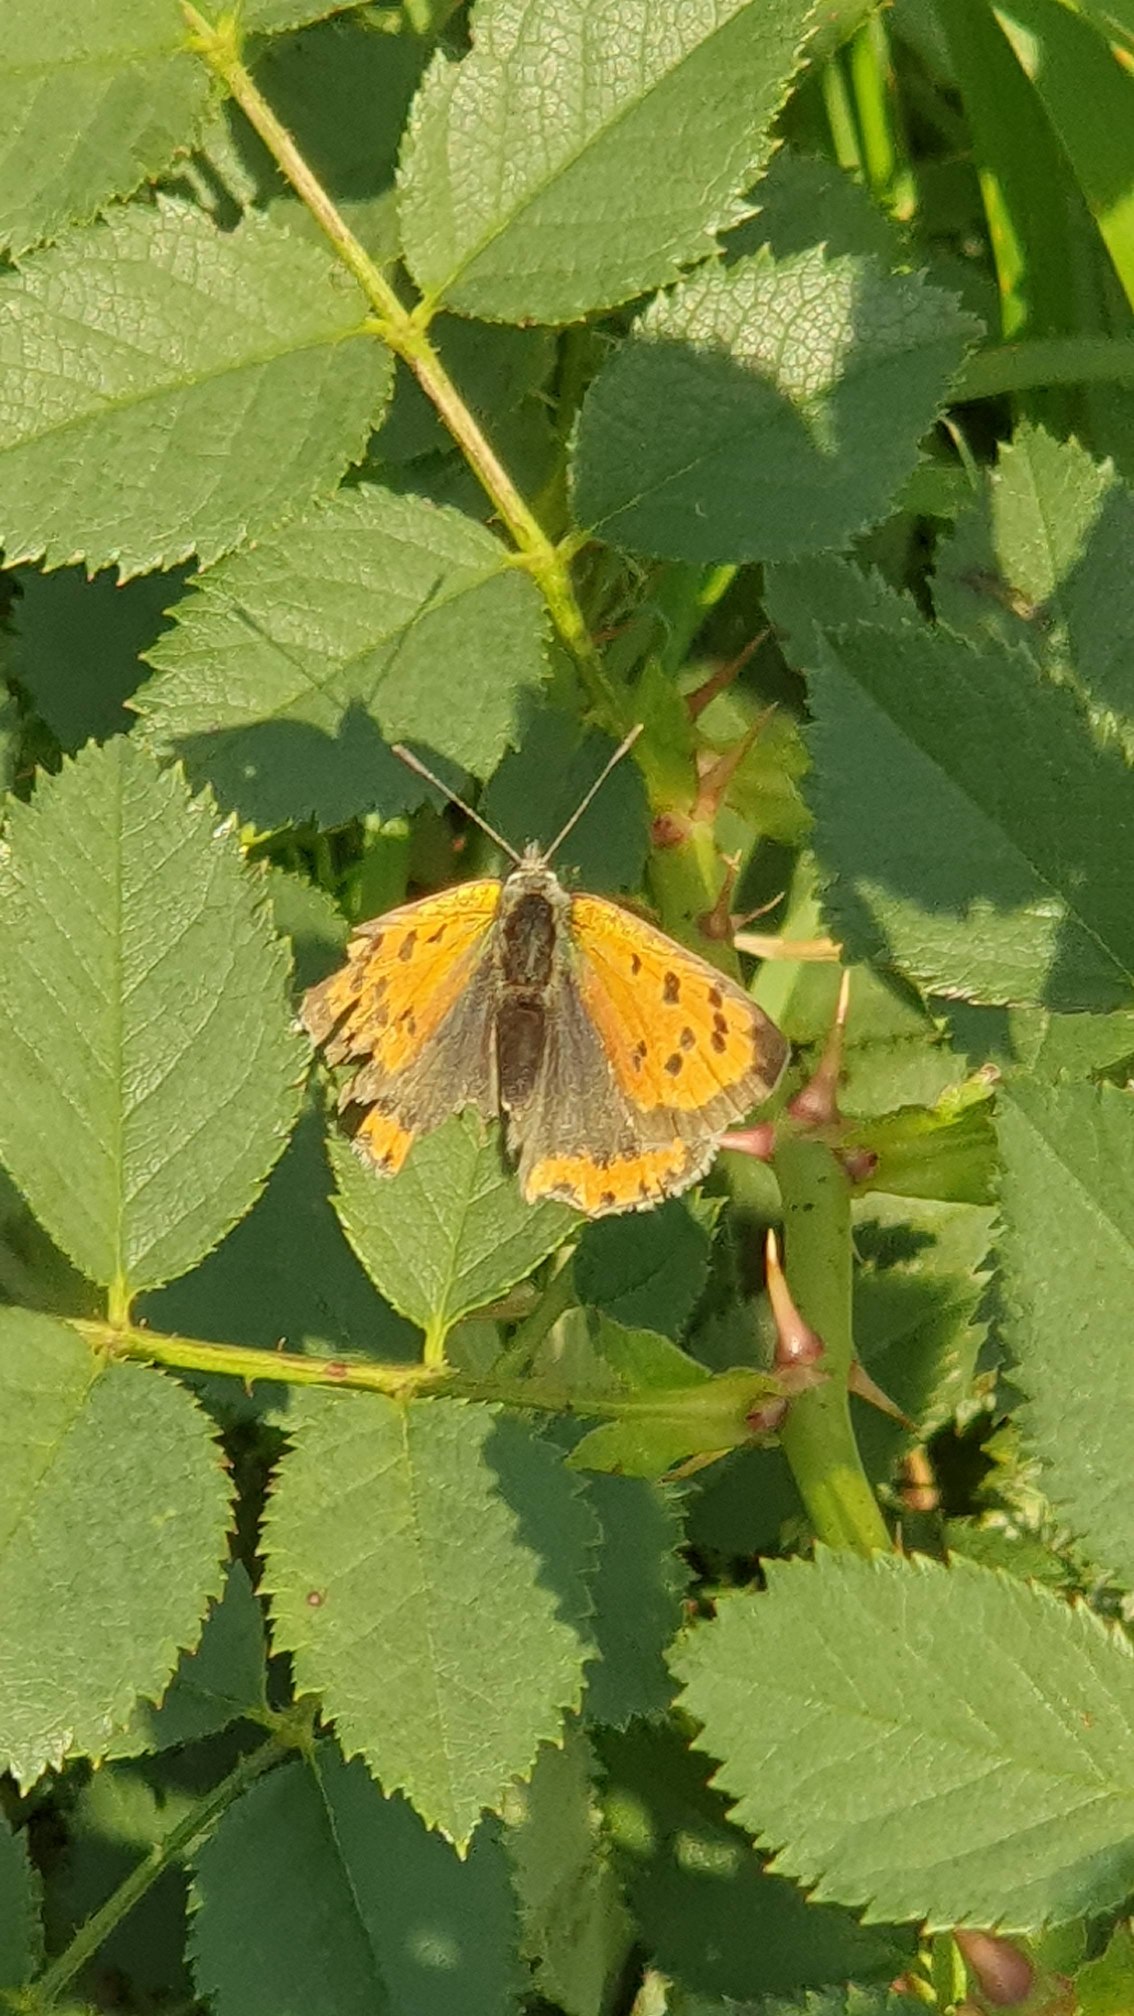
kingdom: Animalia
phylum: Arthropoda
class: Insecta
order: Lepidoptera
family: Lycaenidae
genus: Lycaena
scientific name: Lycaena phlaeas
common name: Lille ildfugl
